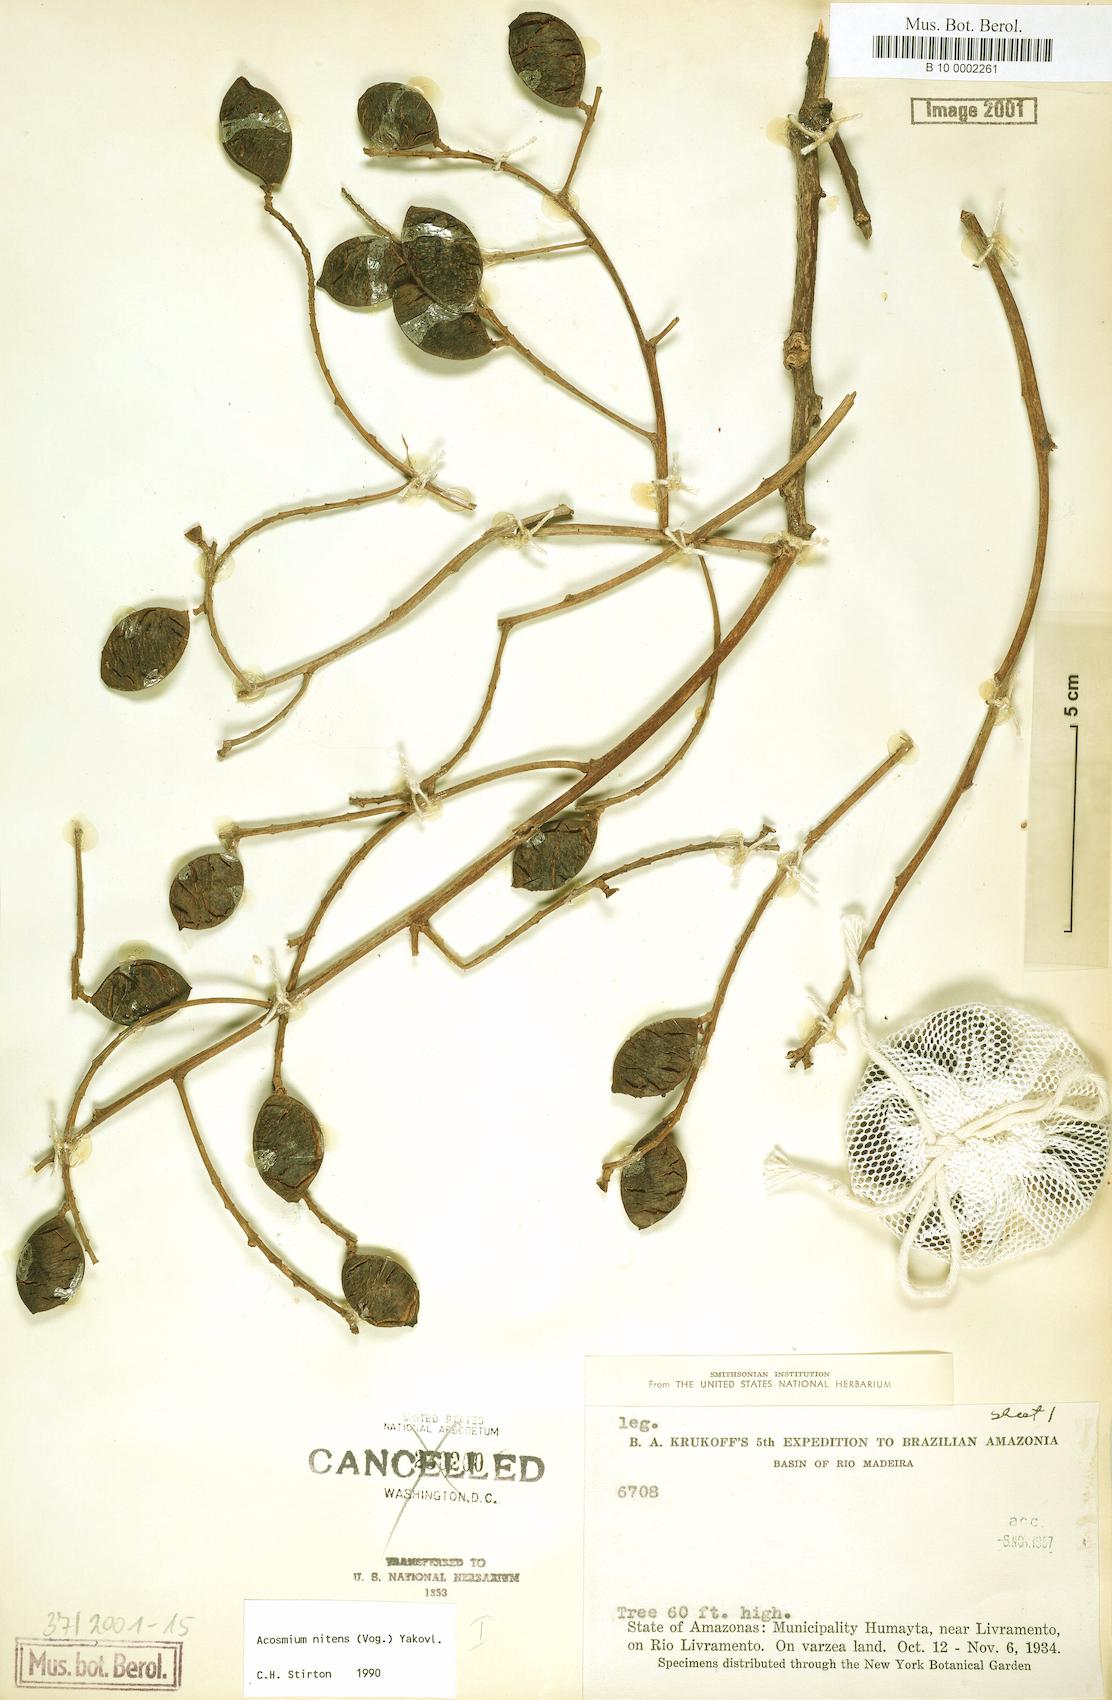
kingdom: Plantae
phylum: Tracheophyta
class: Magnoliopsida
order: Fabales
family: Fabaceae
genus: Leptolobium
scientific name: Leptolobium nitens
